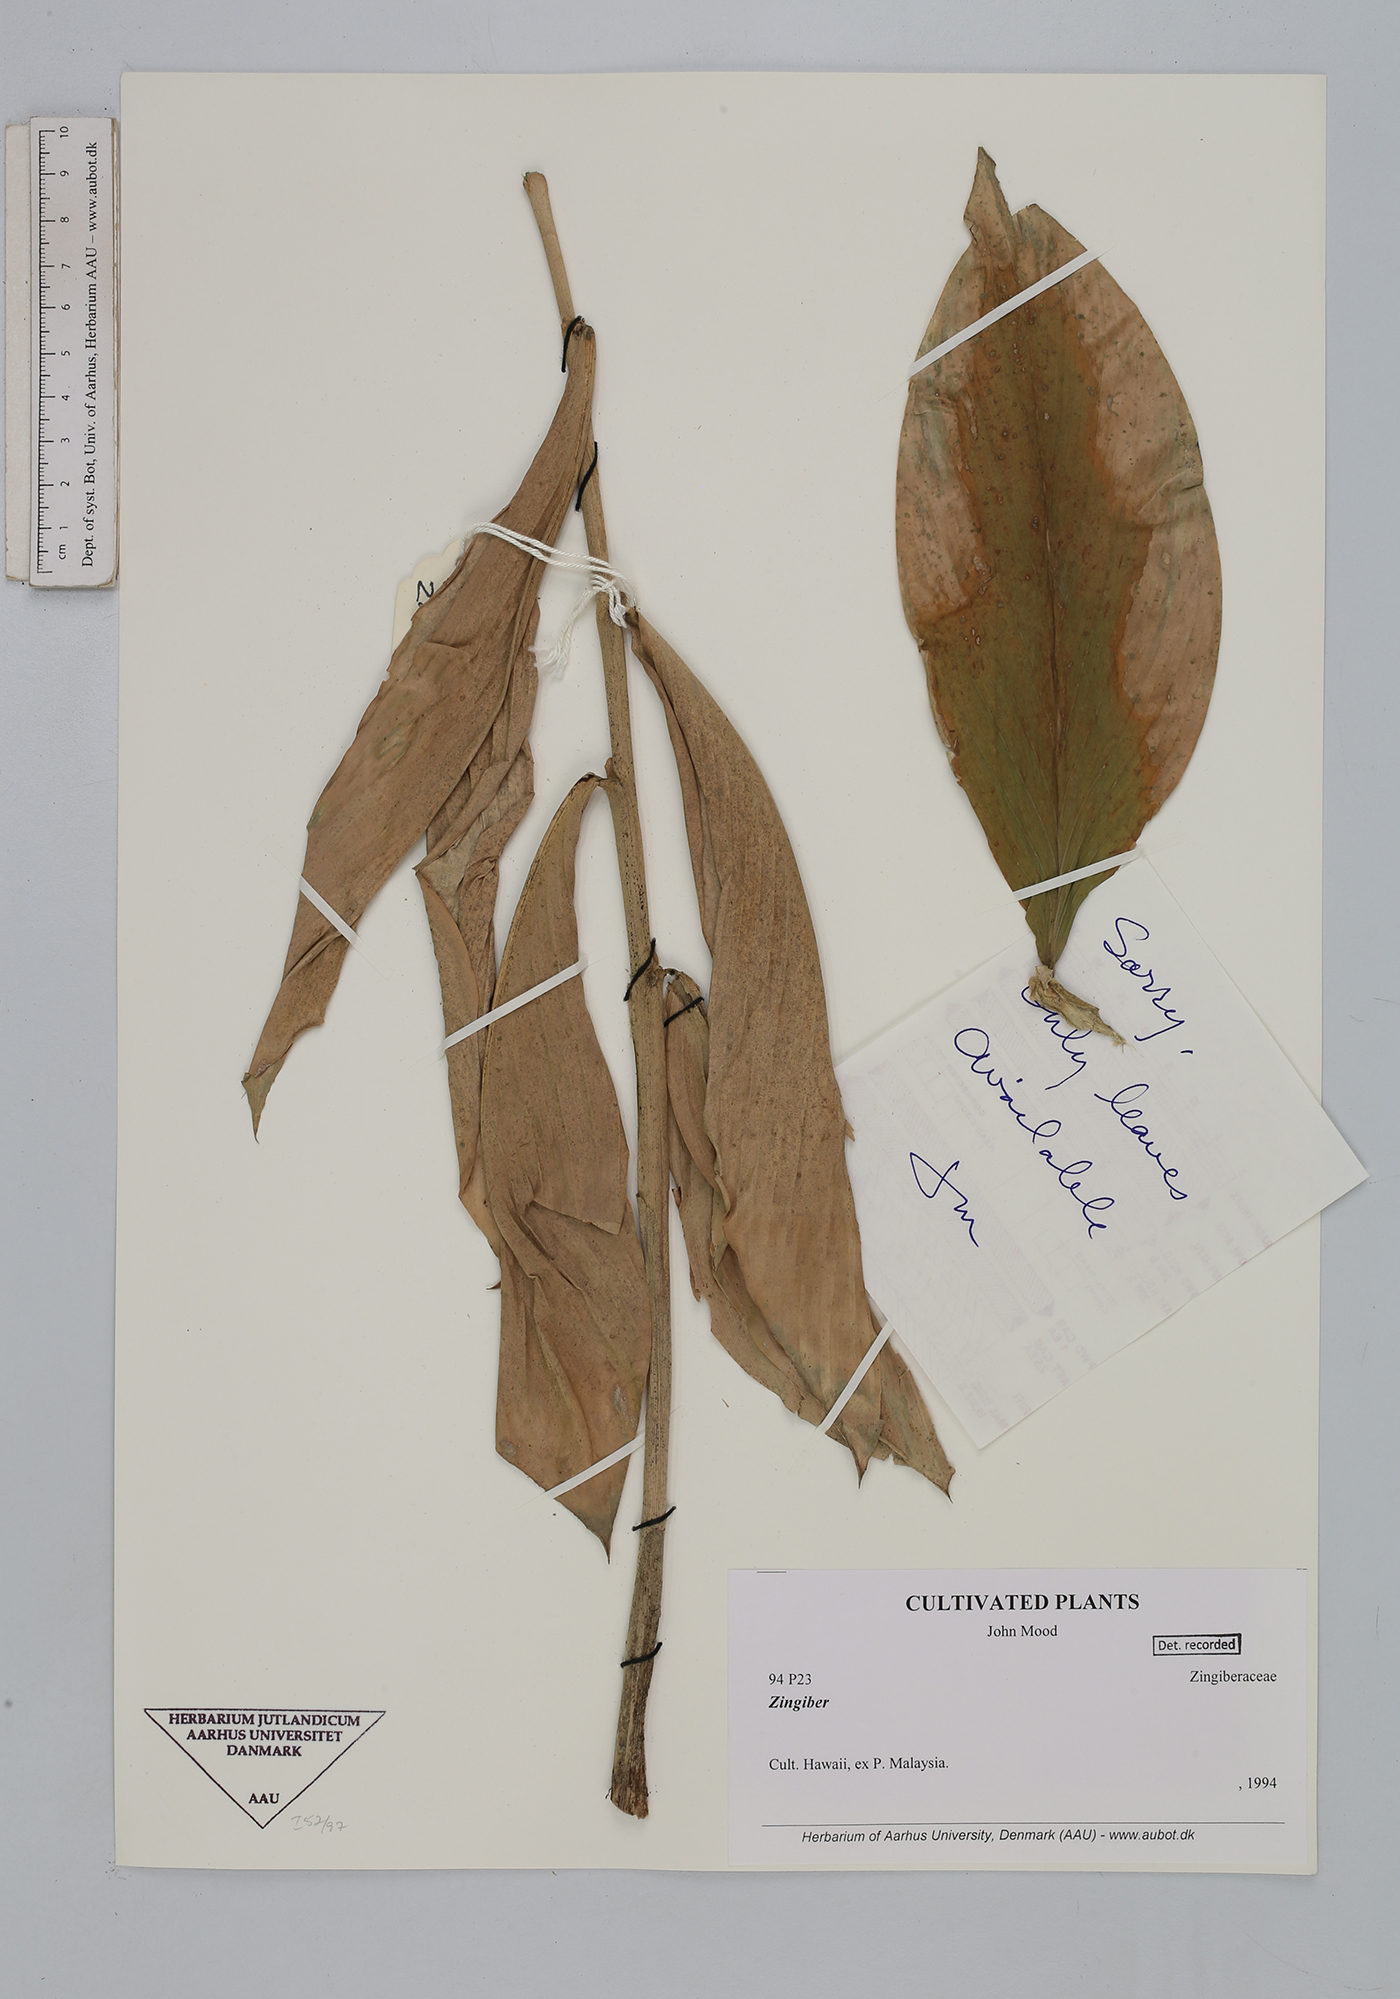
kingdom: Plantae
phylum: Tracheophyta
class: Liliopsida
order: Zingiberales
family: Zingiberaceae
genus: Zingiber
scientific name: Zingiber
